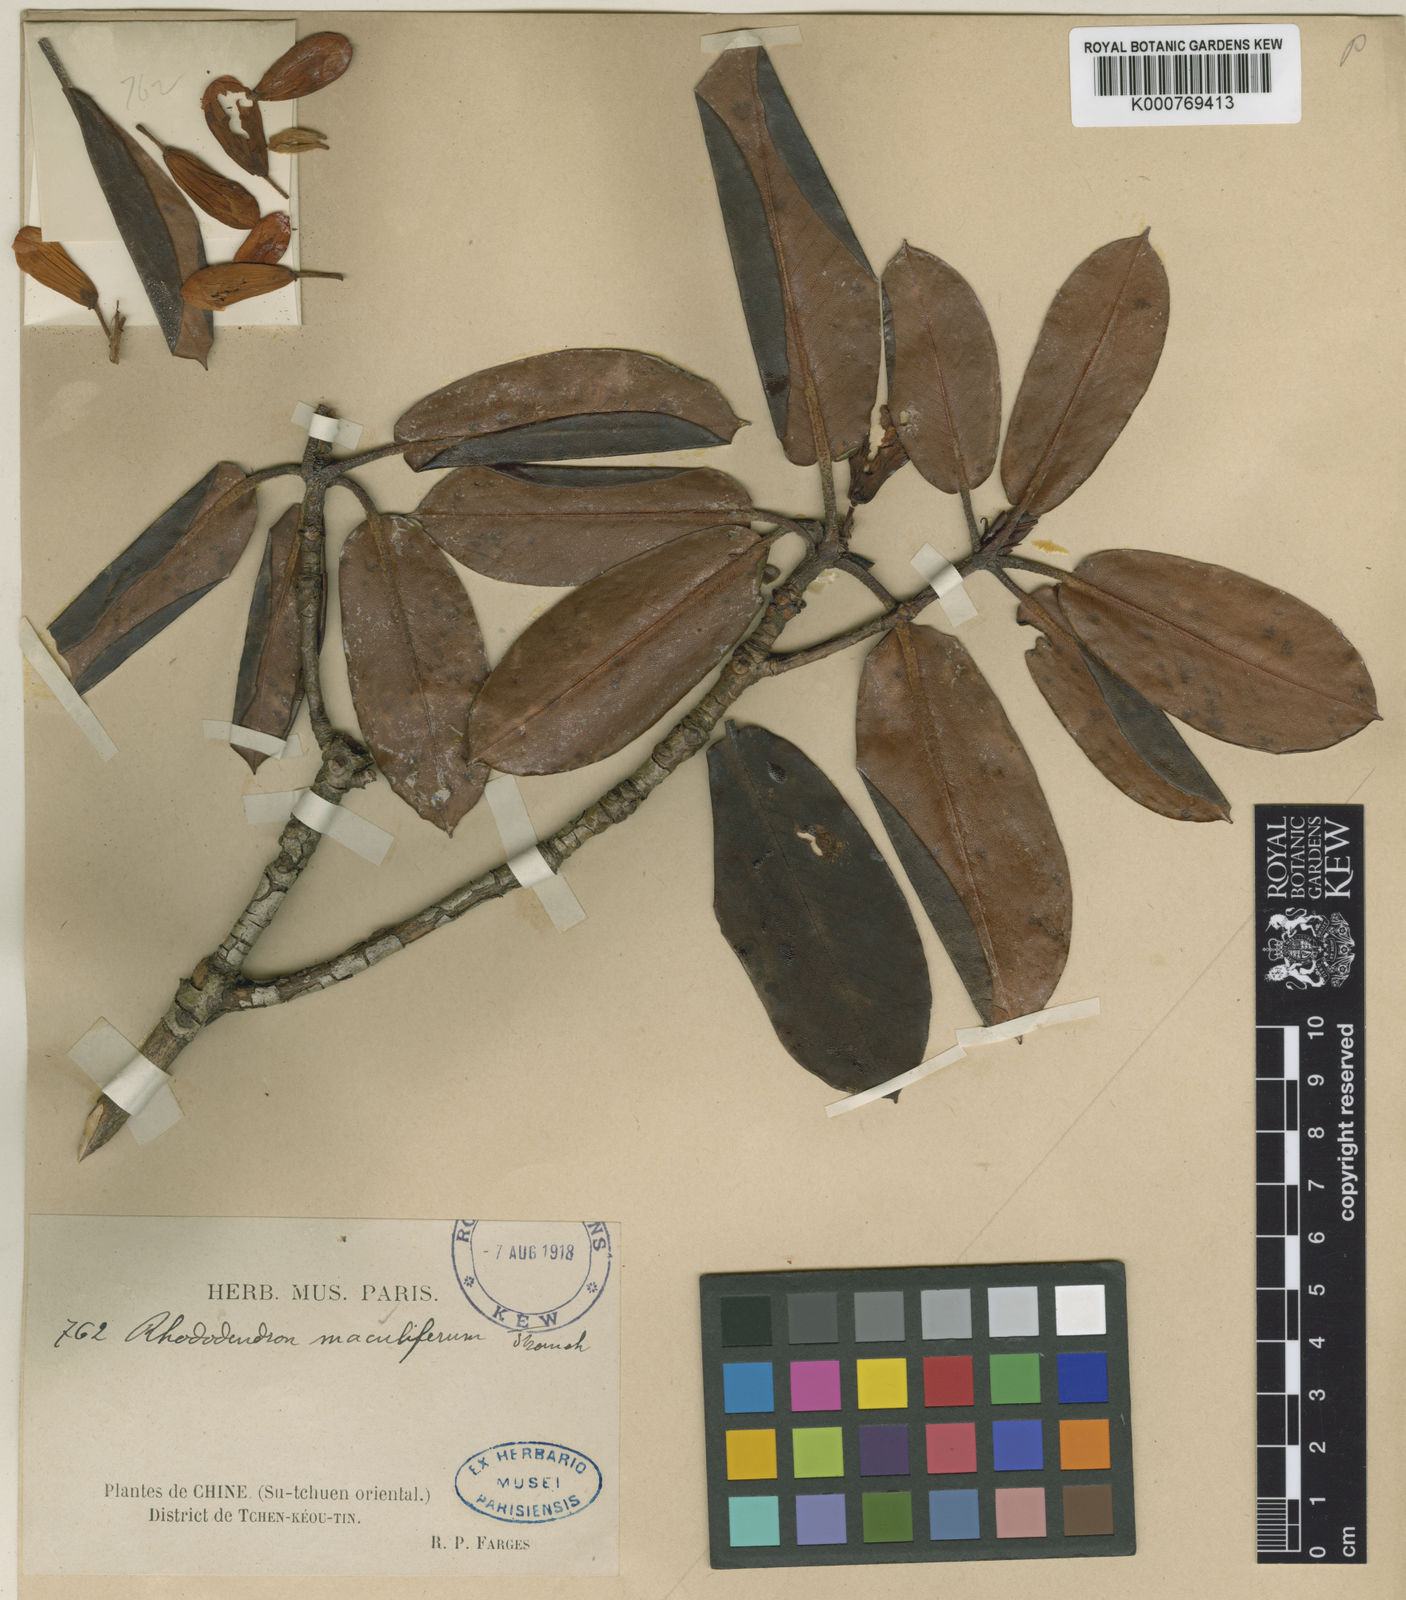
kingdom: Plantae
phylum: Tracheophyta
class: Magnoliopsida
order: Ericales
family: Ericaceae
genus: Rhododendron
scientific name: Rhododendron maculiferum
